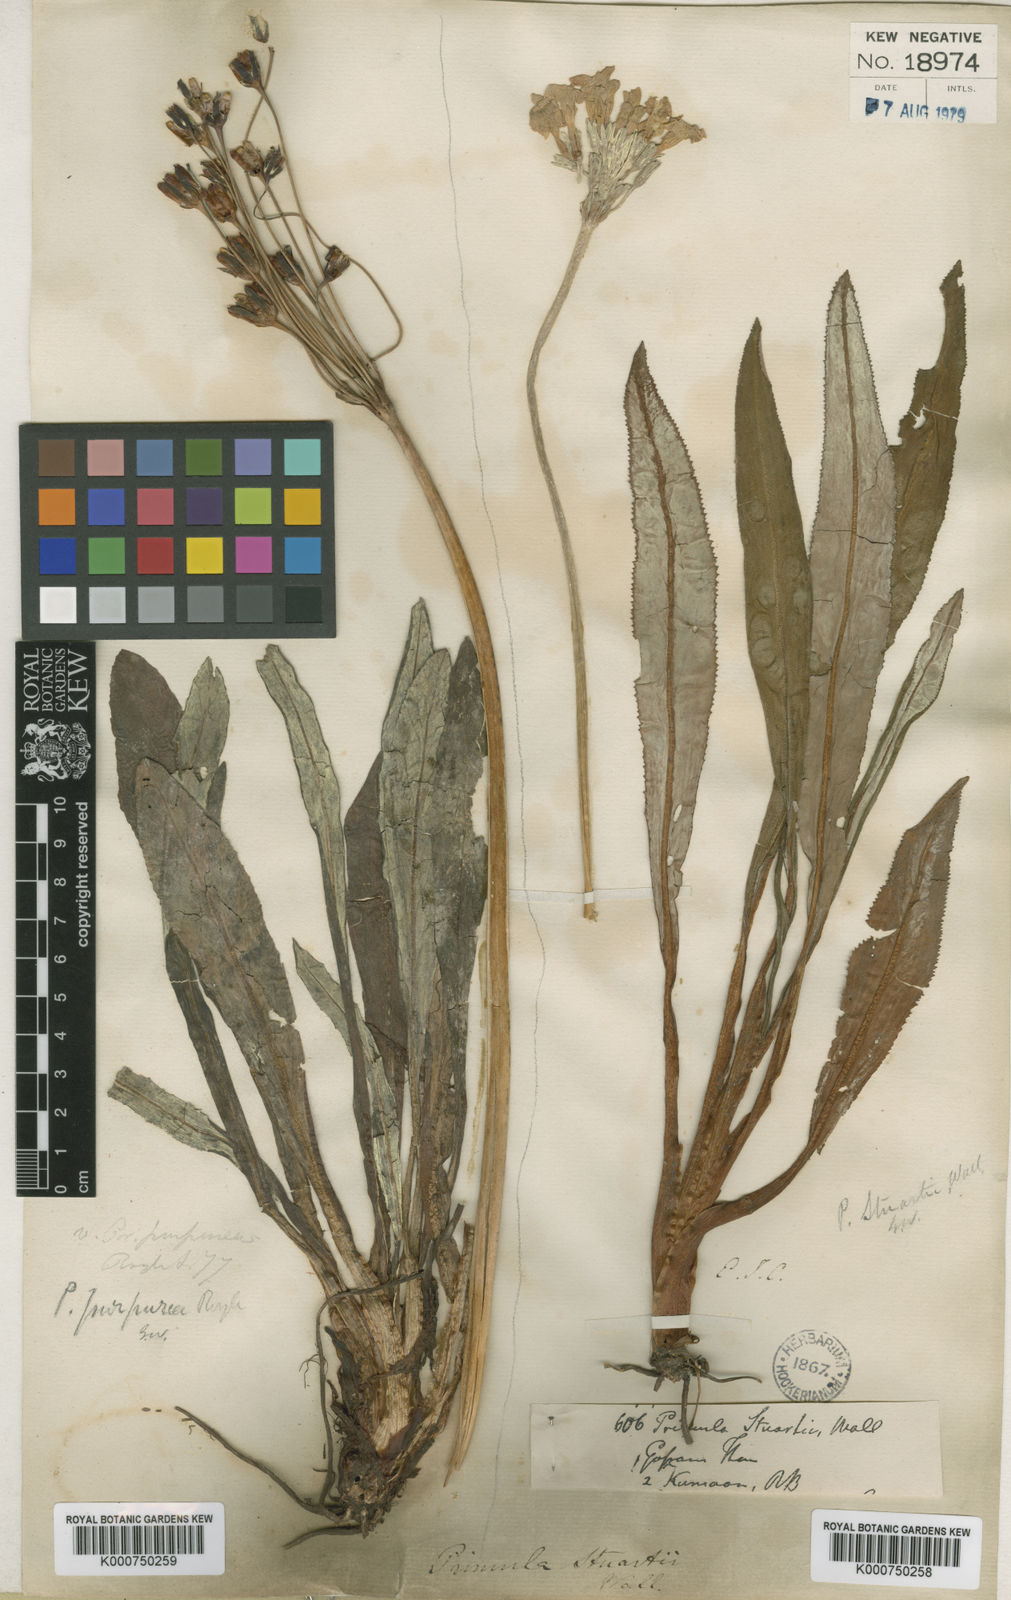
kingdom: Plantae
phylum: Tracheophyta
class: Magnoliopsida
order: Ericales
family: Primulaceae
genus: Primula
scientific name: Primula stuartii
